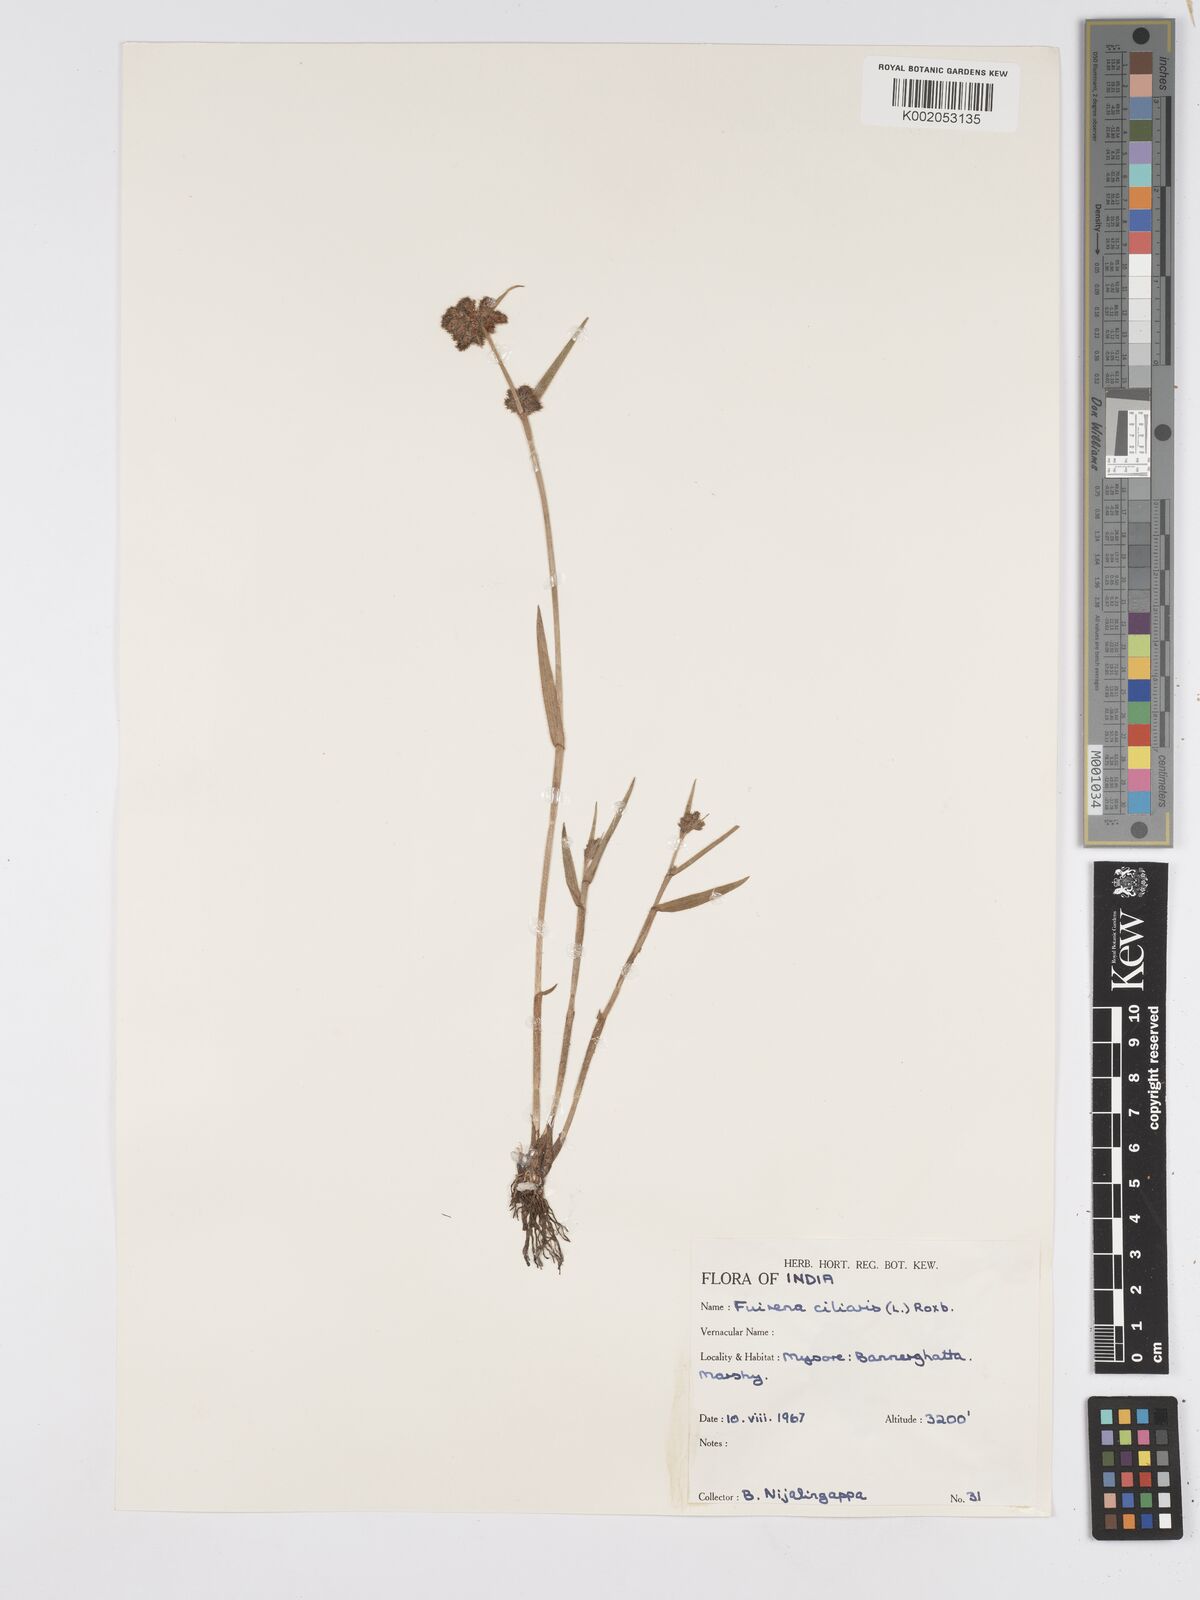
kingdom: Plantae
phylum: Tracheophyta
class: Liliopsida
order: Poales
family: Cyperaceae
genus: Fuirena
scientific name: Fuirena ciliaris
